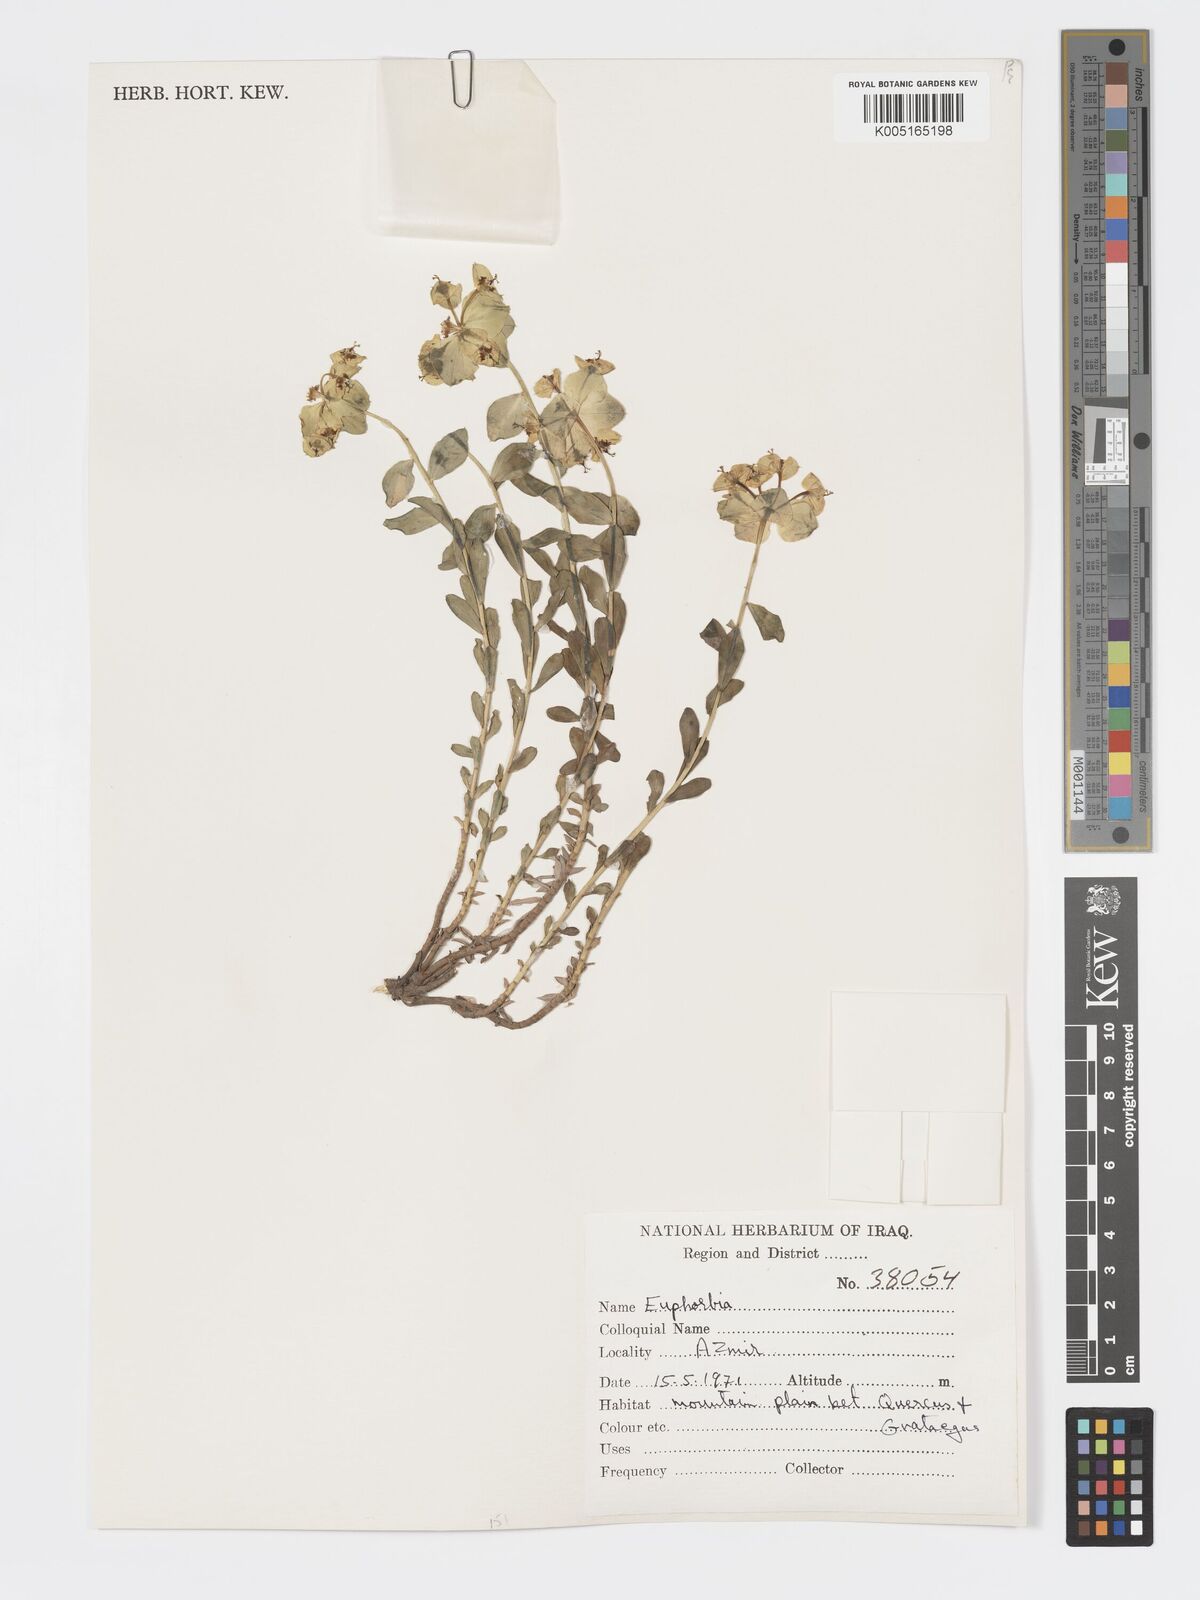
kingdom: Plantae
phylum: Tracheophyta
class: Magnoliopsida
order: Malpighiales
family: Euphorbiaceae
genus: Euphorbia
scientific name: Euphorbia cheiradenia
